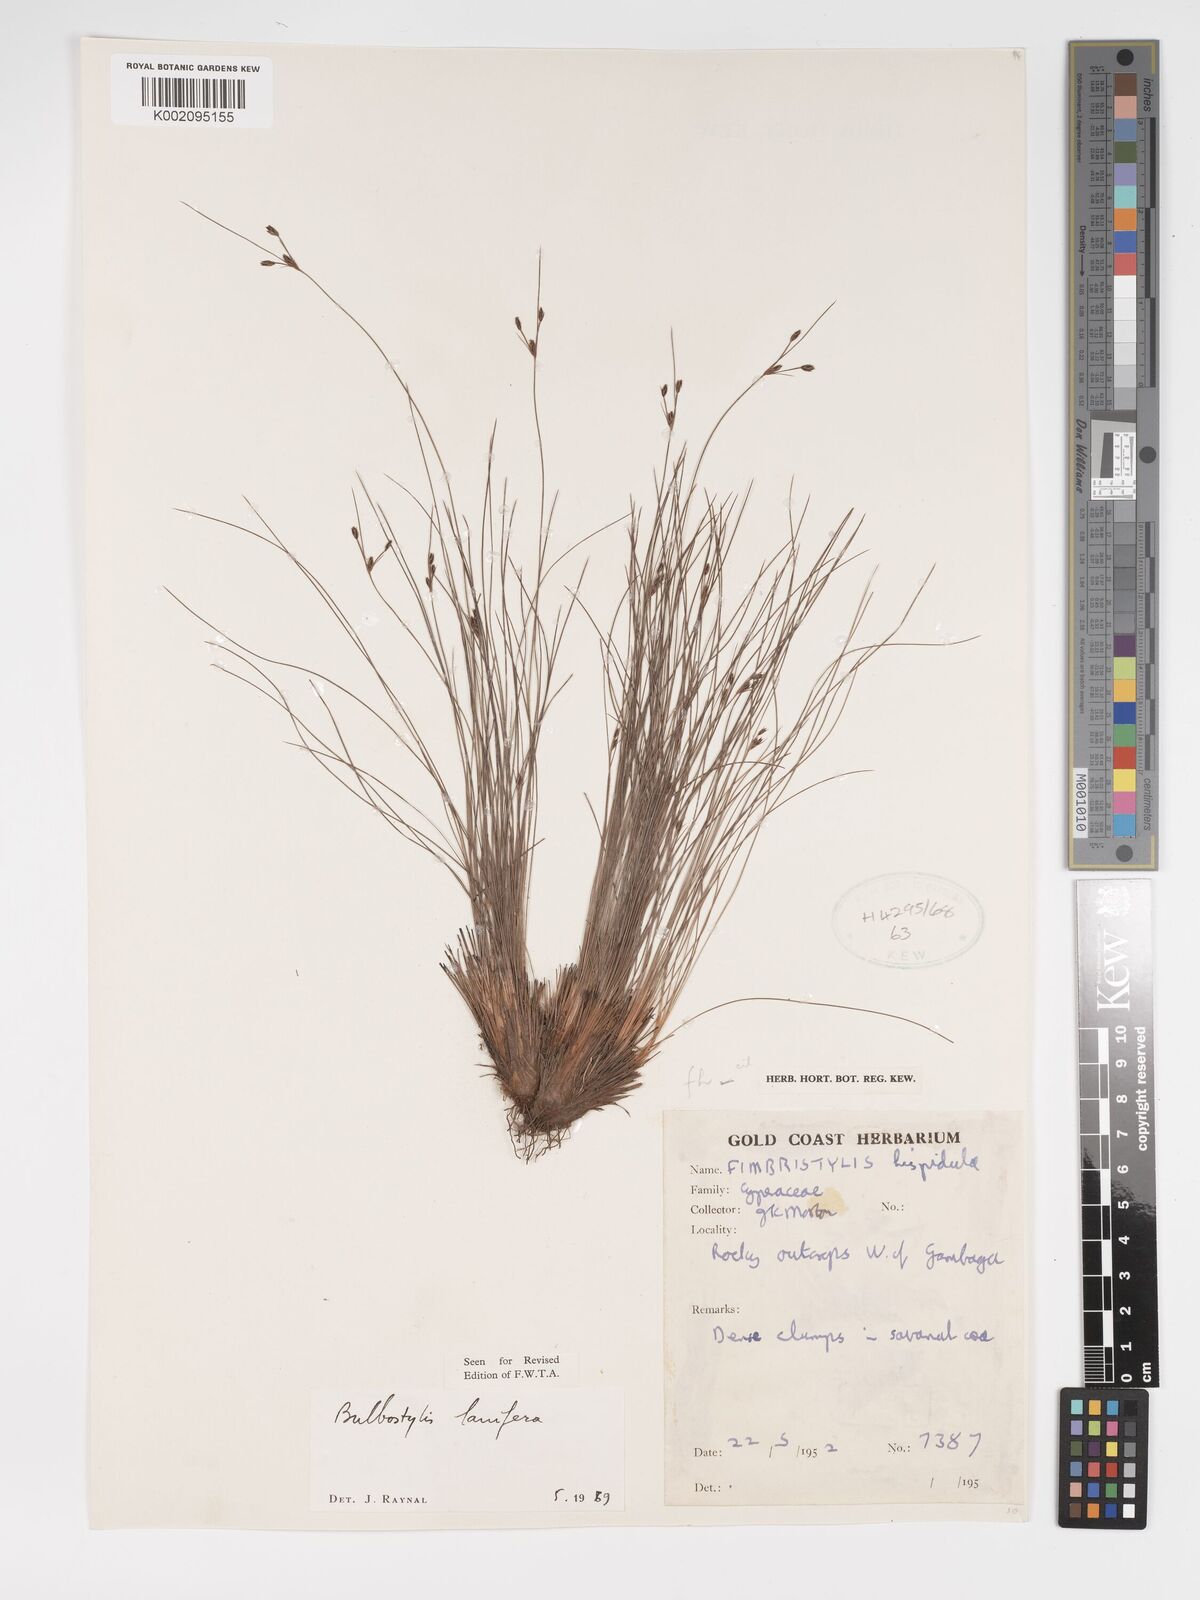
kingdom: Plantae
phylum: Tracheophyta
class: Liliopsida
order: Poales
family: Cyperaceae
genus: Bulbostylis
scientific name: Bulbostylis lanifera
